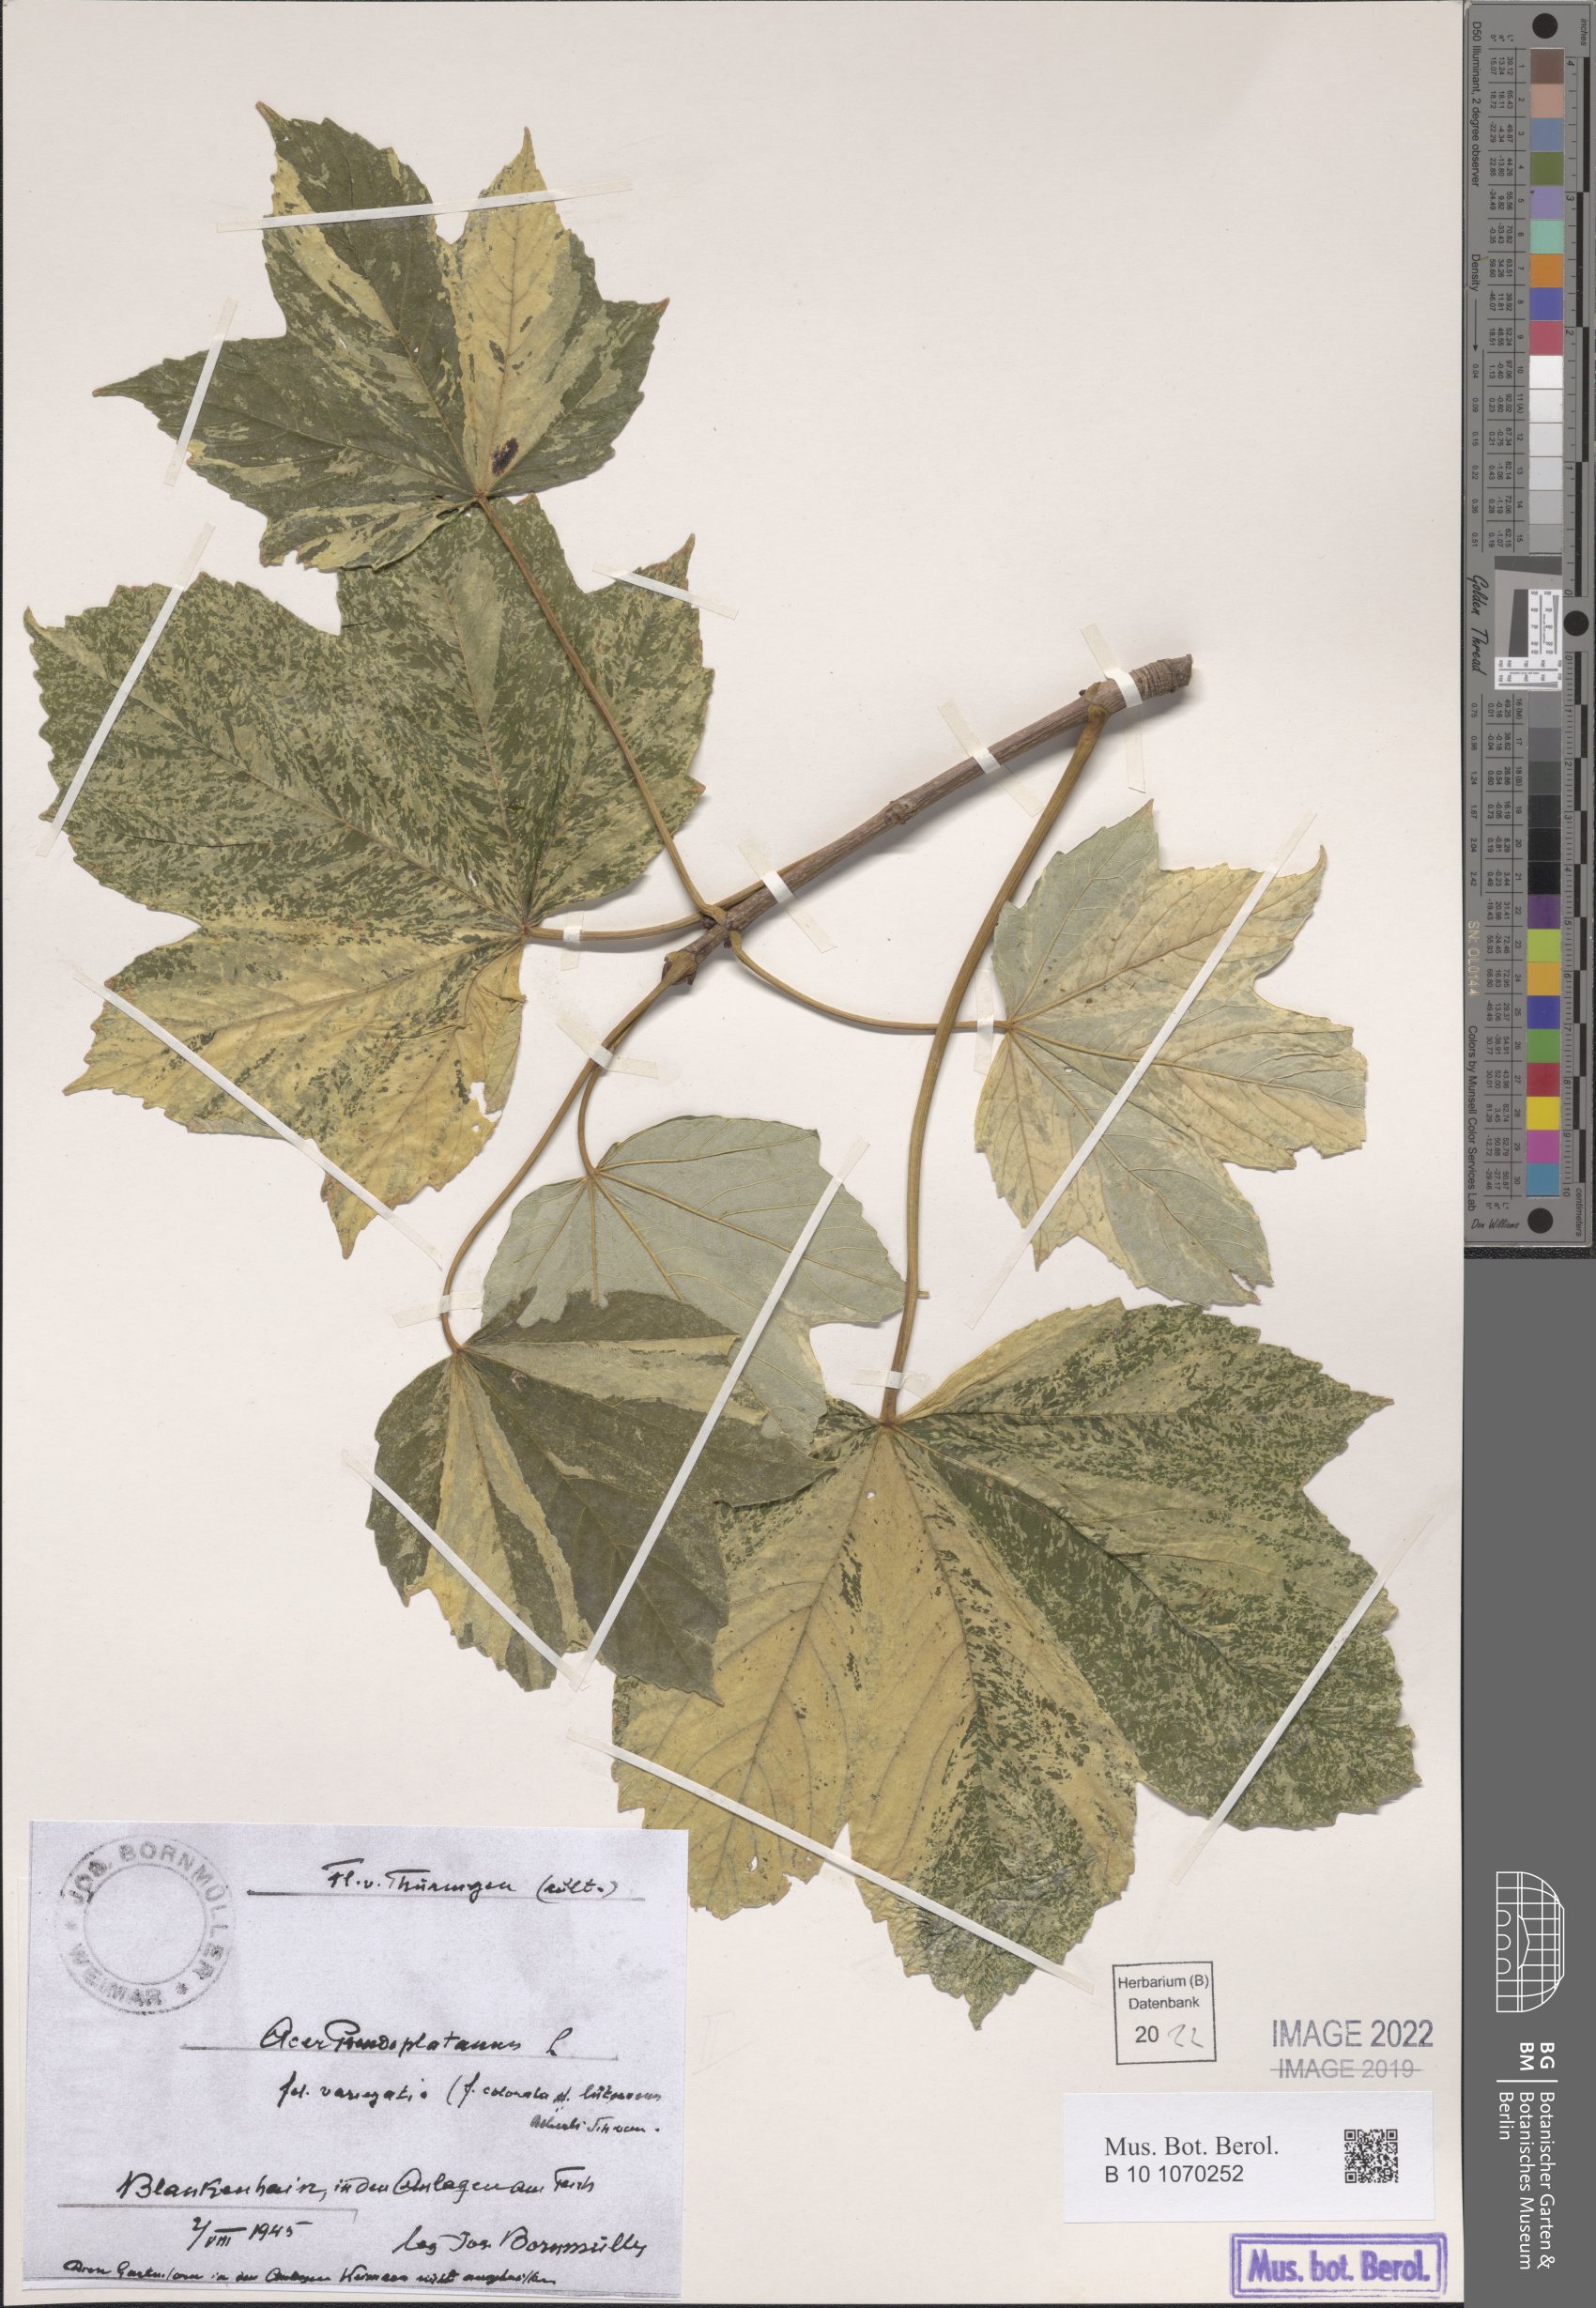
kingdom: Plantae
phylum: Tracheophyta
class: Magnoliopsida
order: Sapindales
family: Sapindaceae
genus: Acer
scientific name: Acer pseudoplatanus
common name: Sycamore
